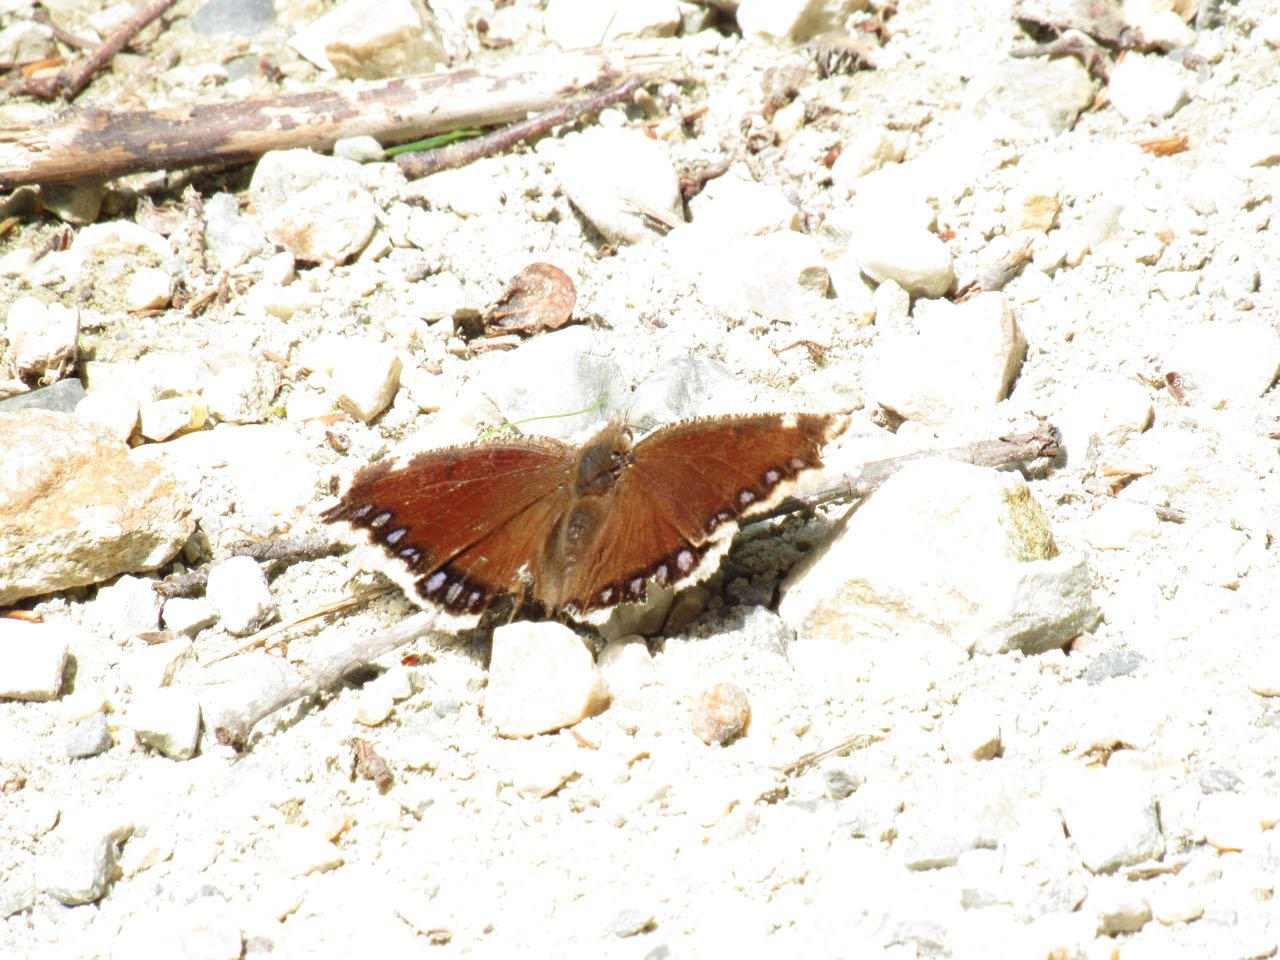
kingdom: Animalia
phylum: Arthropoda
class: Insecta
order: Lepidoptera
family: Nymphalidae
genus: Nymphalis
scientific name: Nymphalis antiopa
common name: Mourning Cloak
